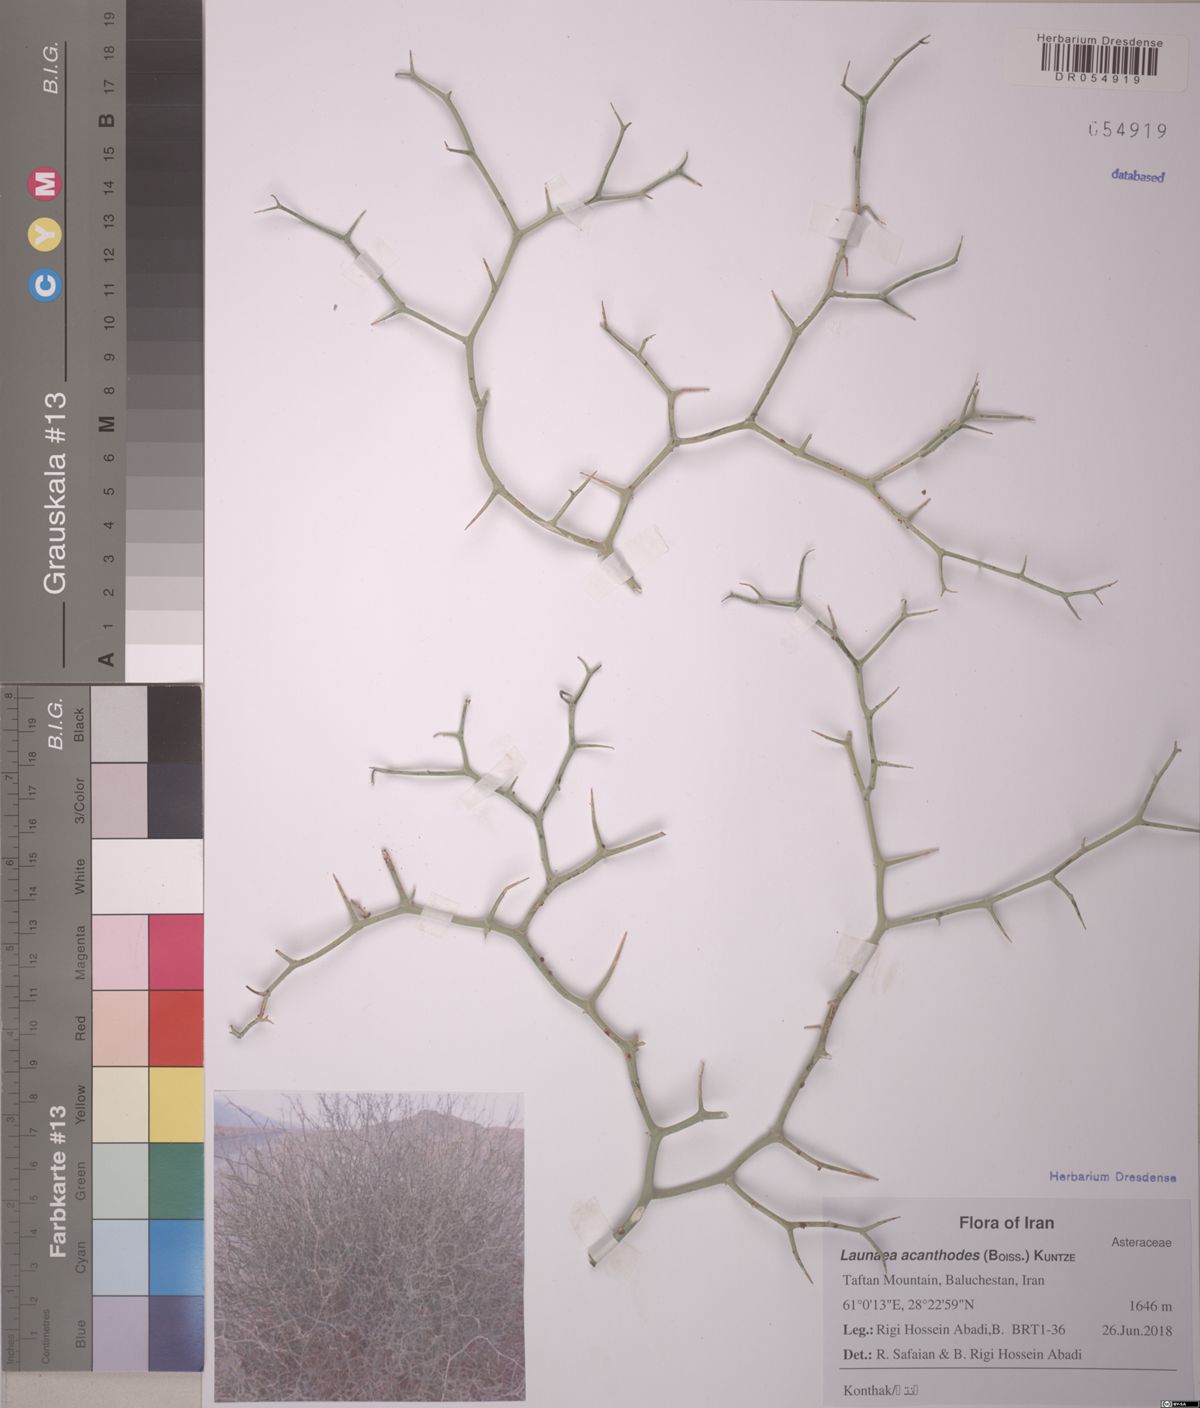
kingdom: Plantae
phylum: Tracheophyta
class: Magnoliopsida
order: Asterales
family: Asteraceae
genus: Launaea
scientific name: Launaea acanthodes
